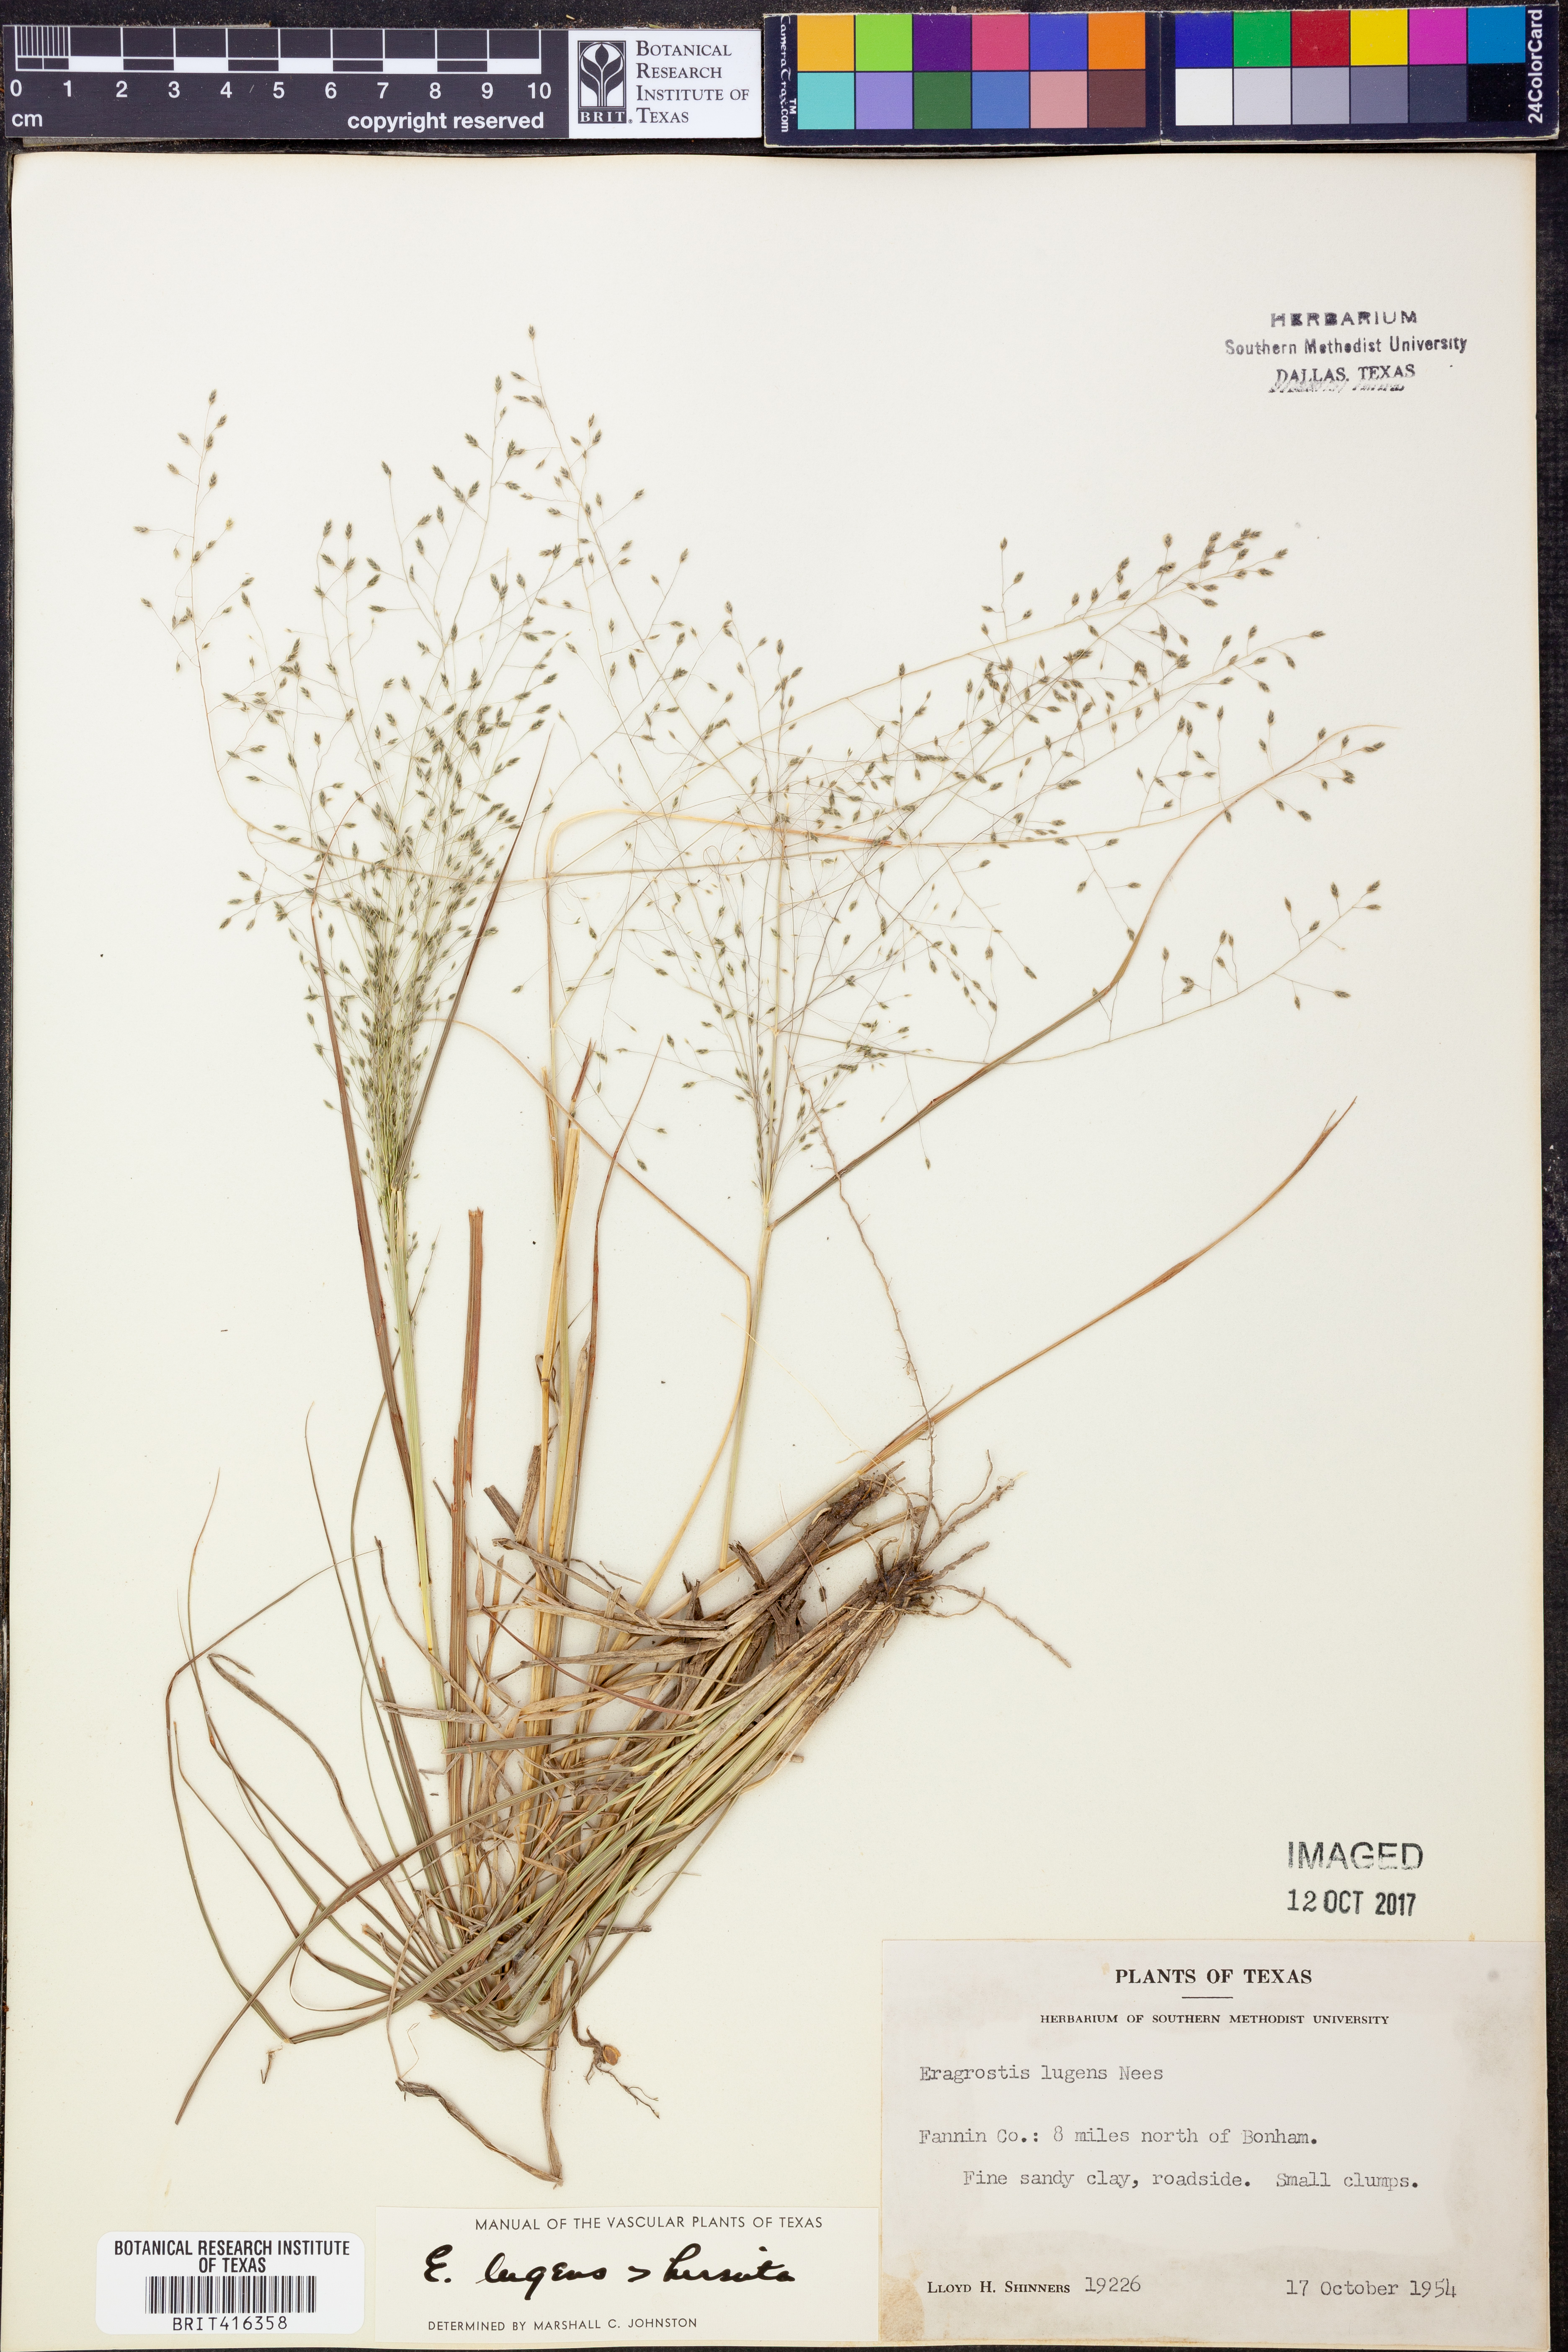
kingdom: Plantae
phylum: Tracheophyta
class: Liliopsida
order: Poales
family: Poaceae
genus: Eragrostis
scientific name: Eragrostis capillaris
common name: Hair-like lovegrass
